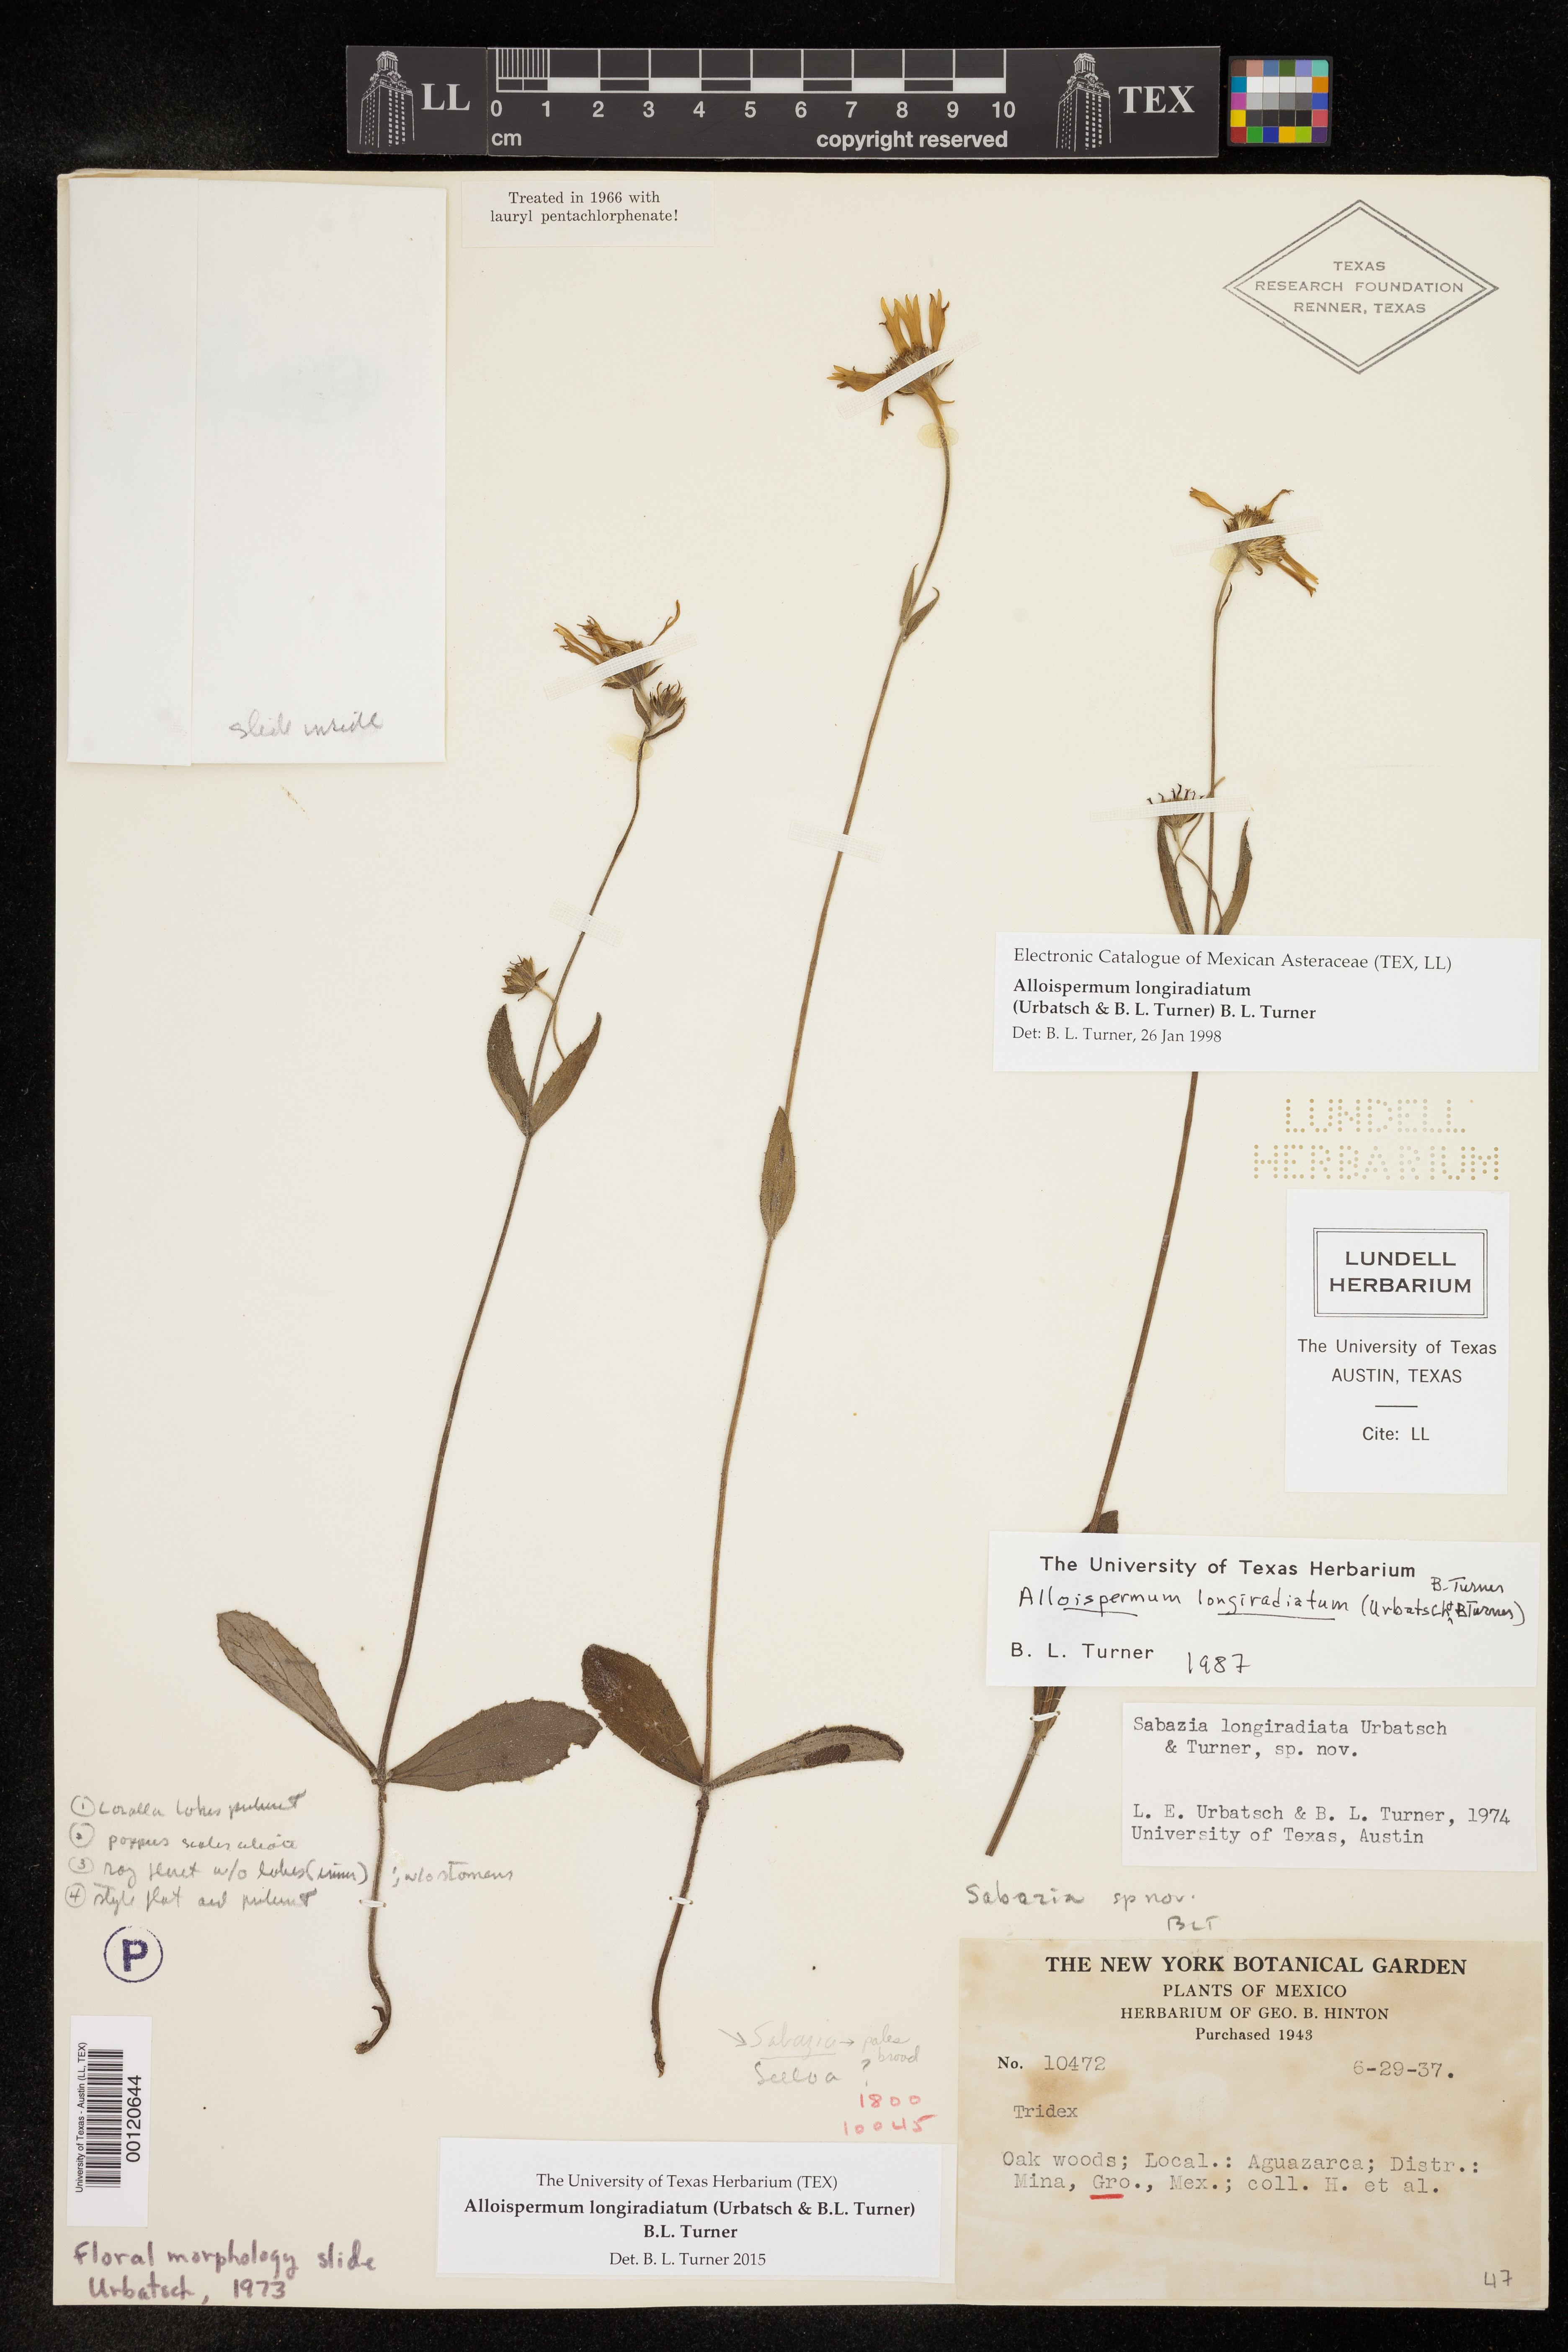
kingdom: Plantae
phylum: Tracheophyta
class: Magnoliopsida
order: Asterales
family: Asteraceae
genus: Alloispermum
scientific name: Alloispermum longiradiatum
